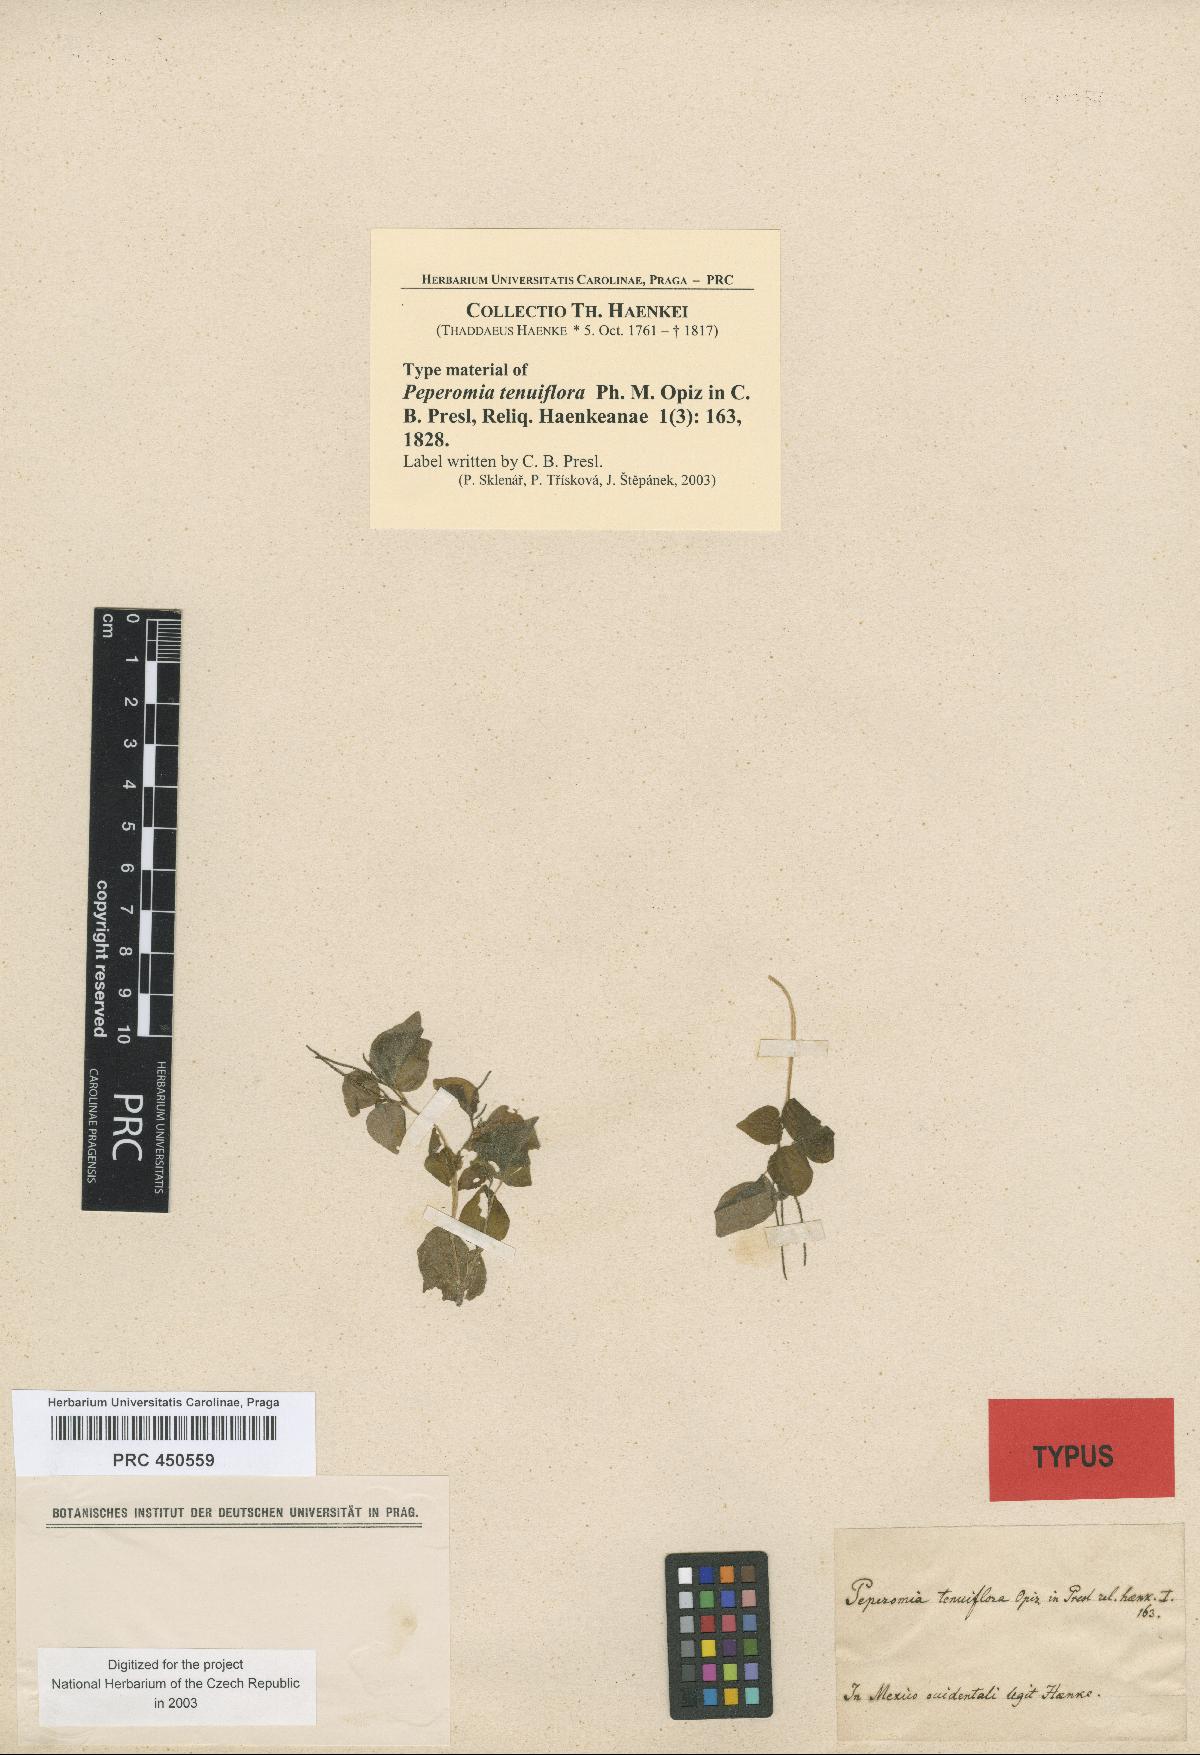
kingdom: Plantae
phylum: Tracheophyta
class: Magnoliopsida
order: Piperales
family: Piperaceae
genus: Peperomia
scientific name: Peperomia tenuiflora
